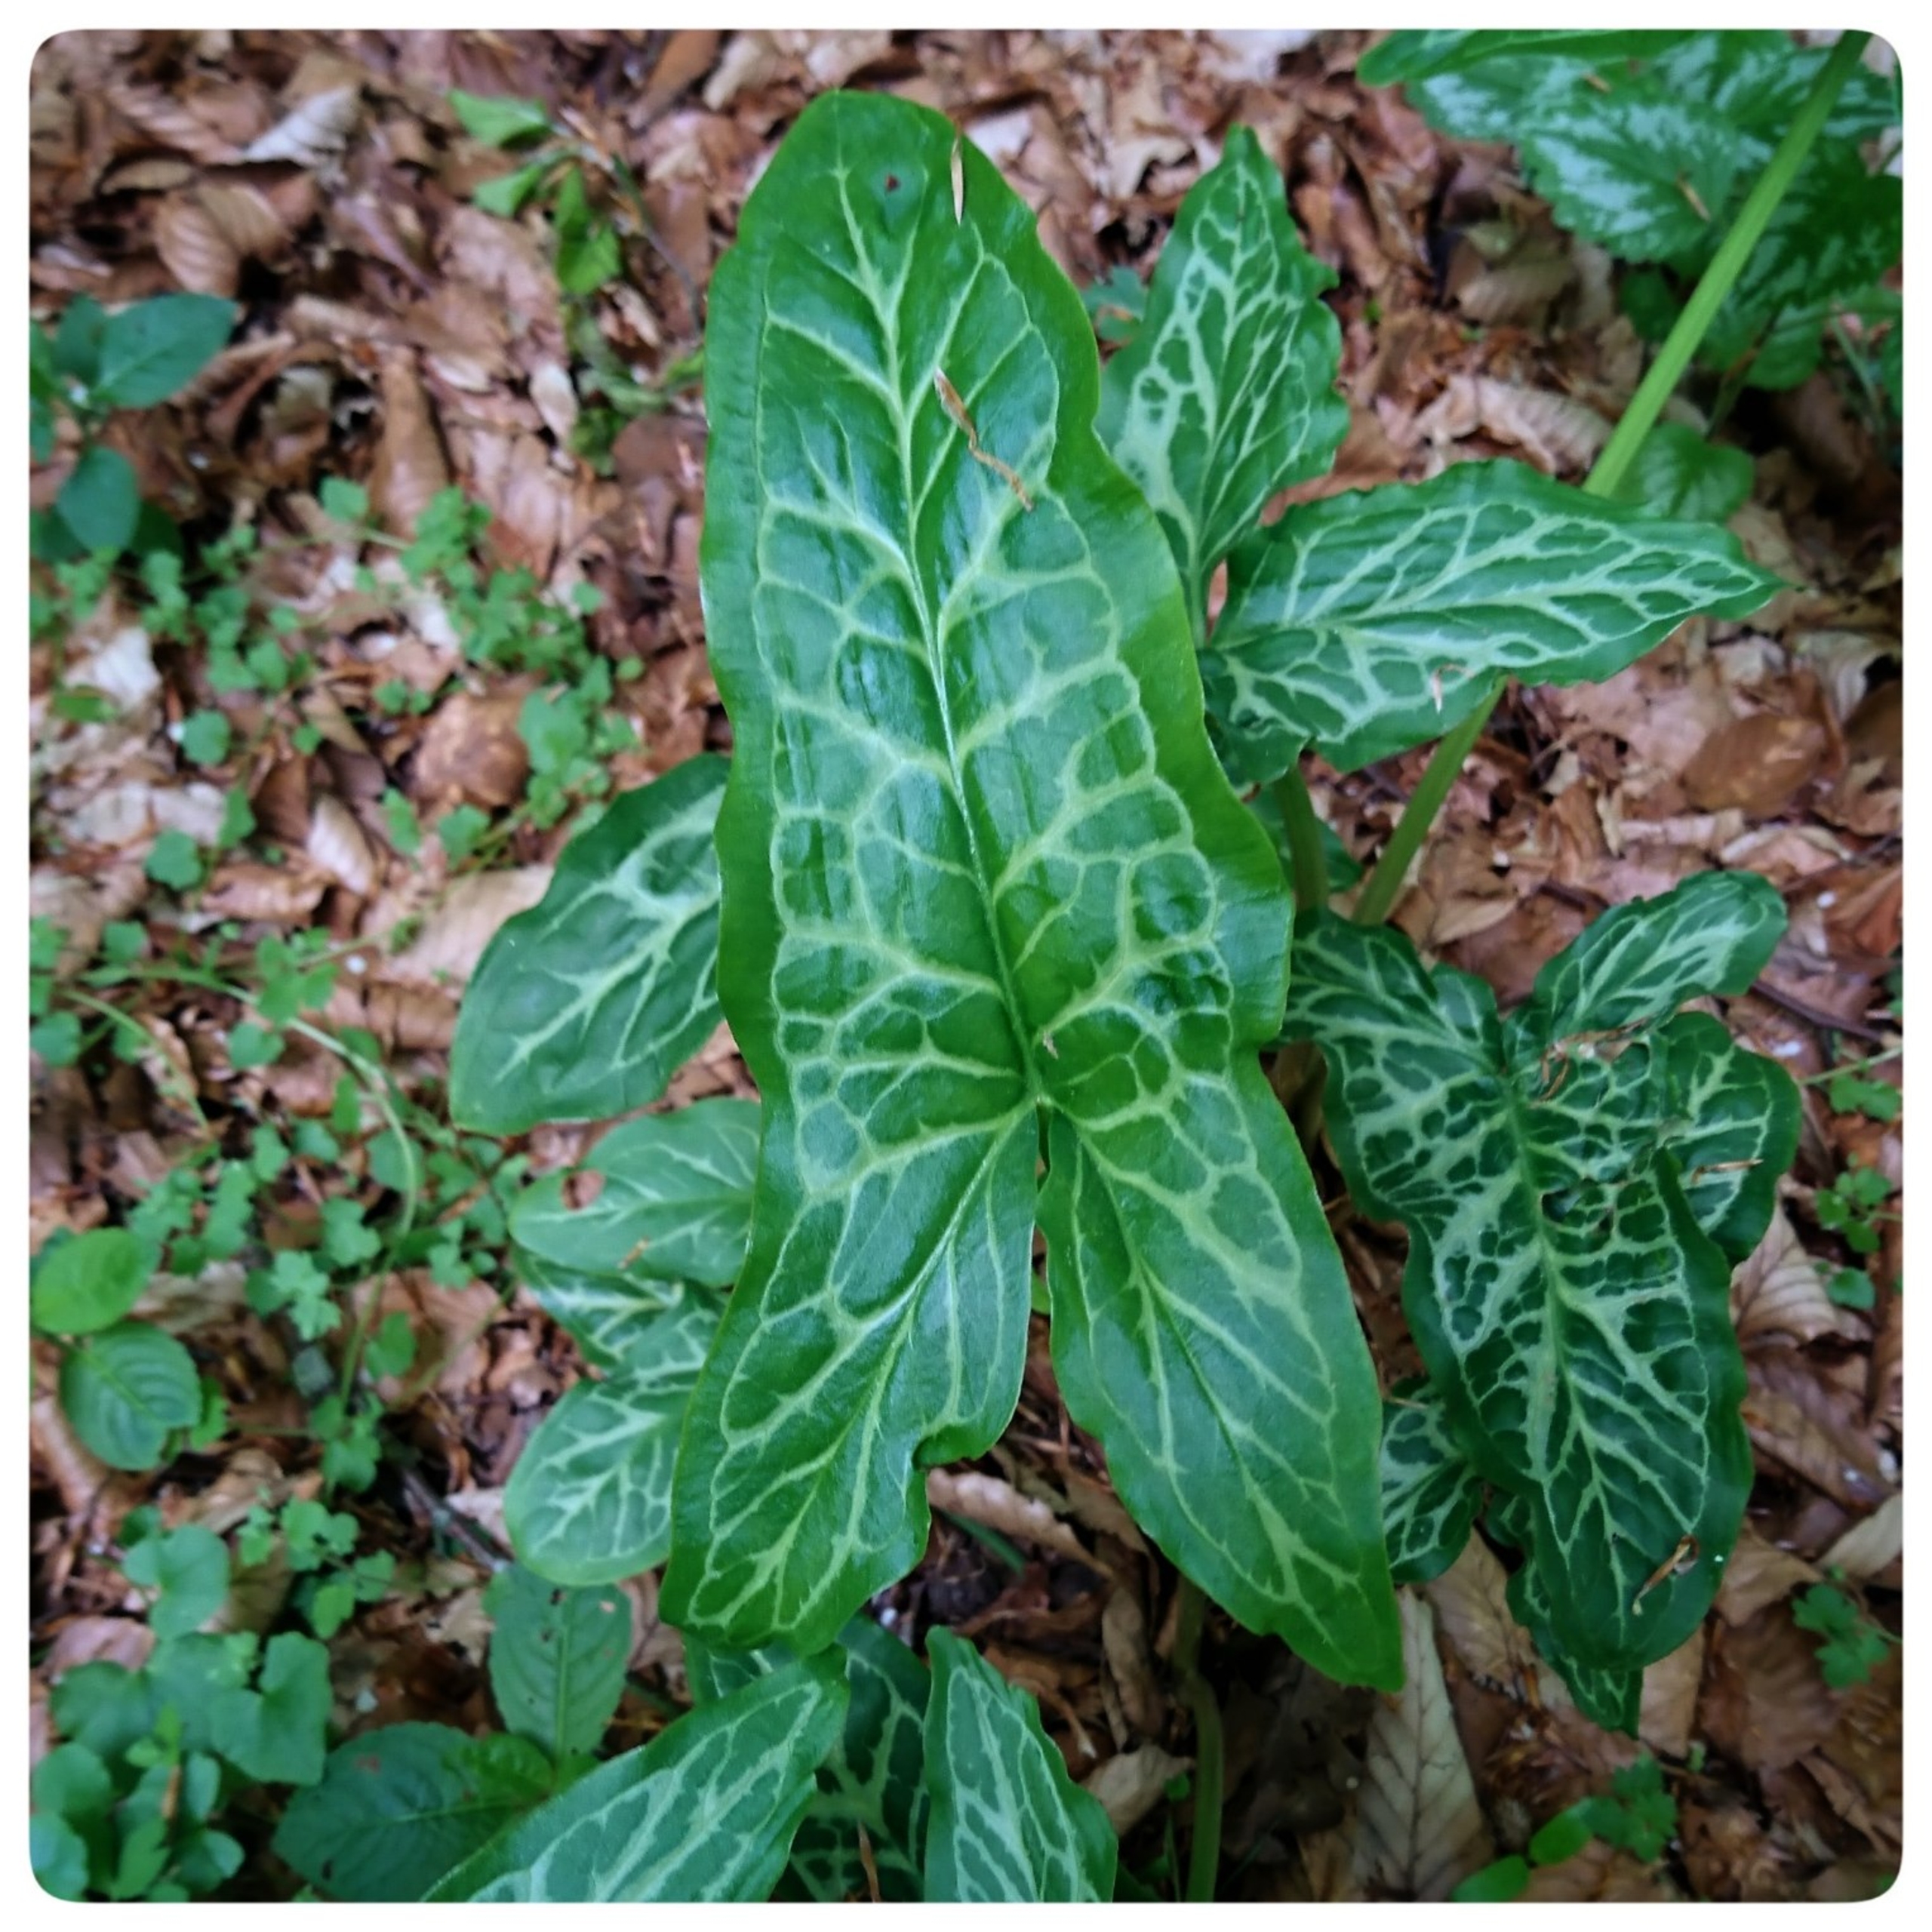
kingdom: Plantae
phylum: Tracheophyta
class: Liliopsida
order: Alismatales
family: Araceae
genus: Arum
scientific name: Arum italicum
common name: Italiensk arum
